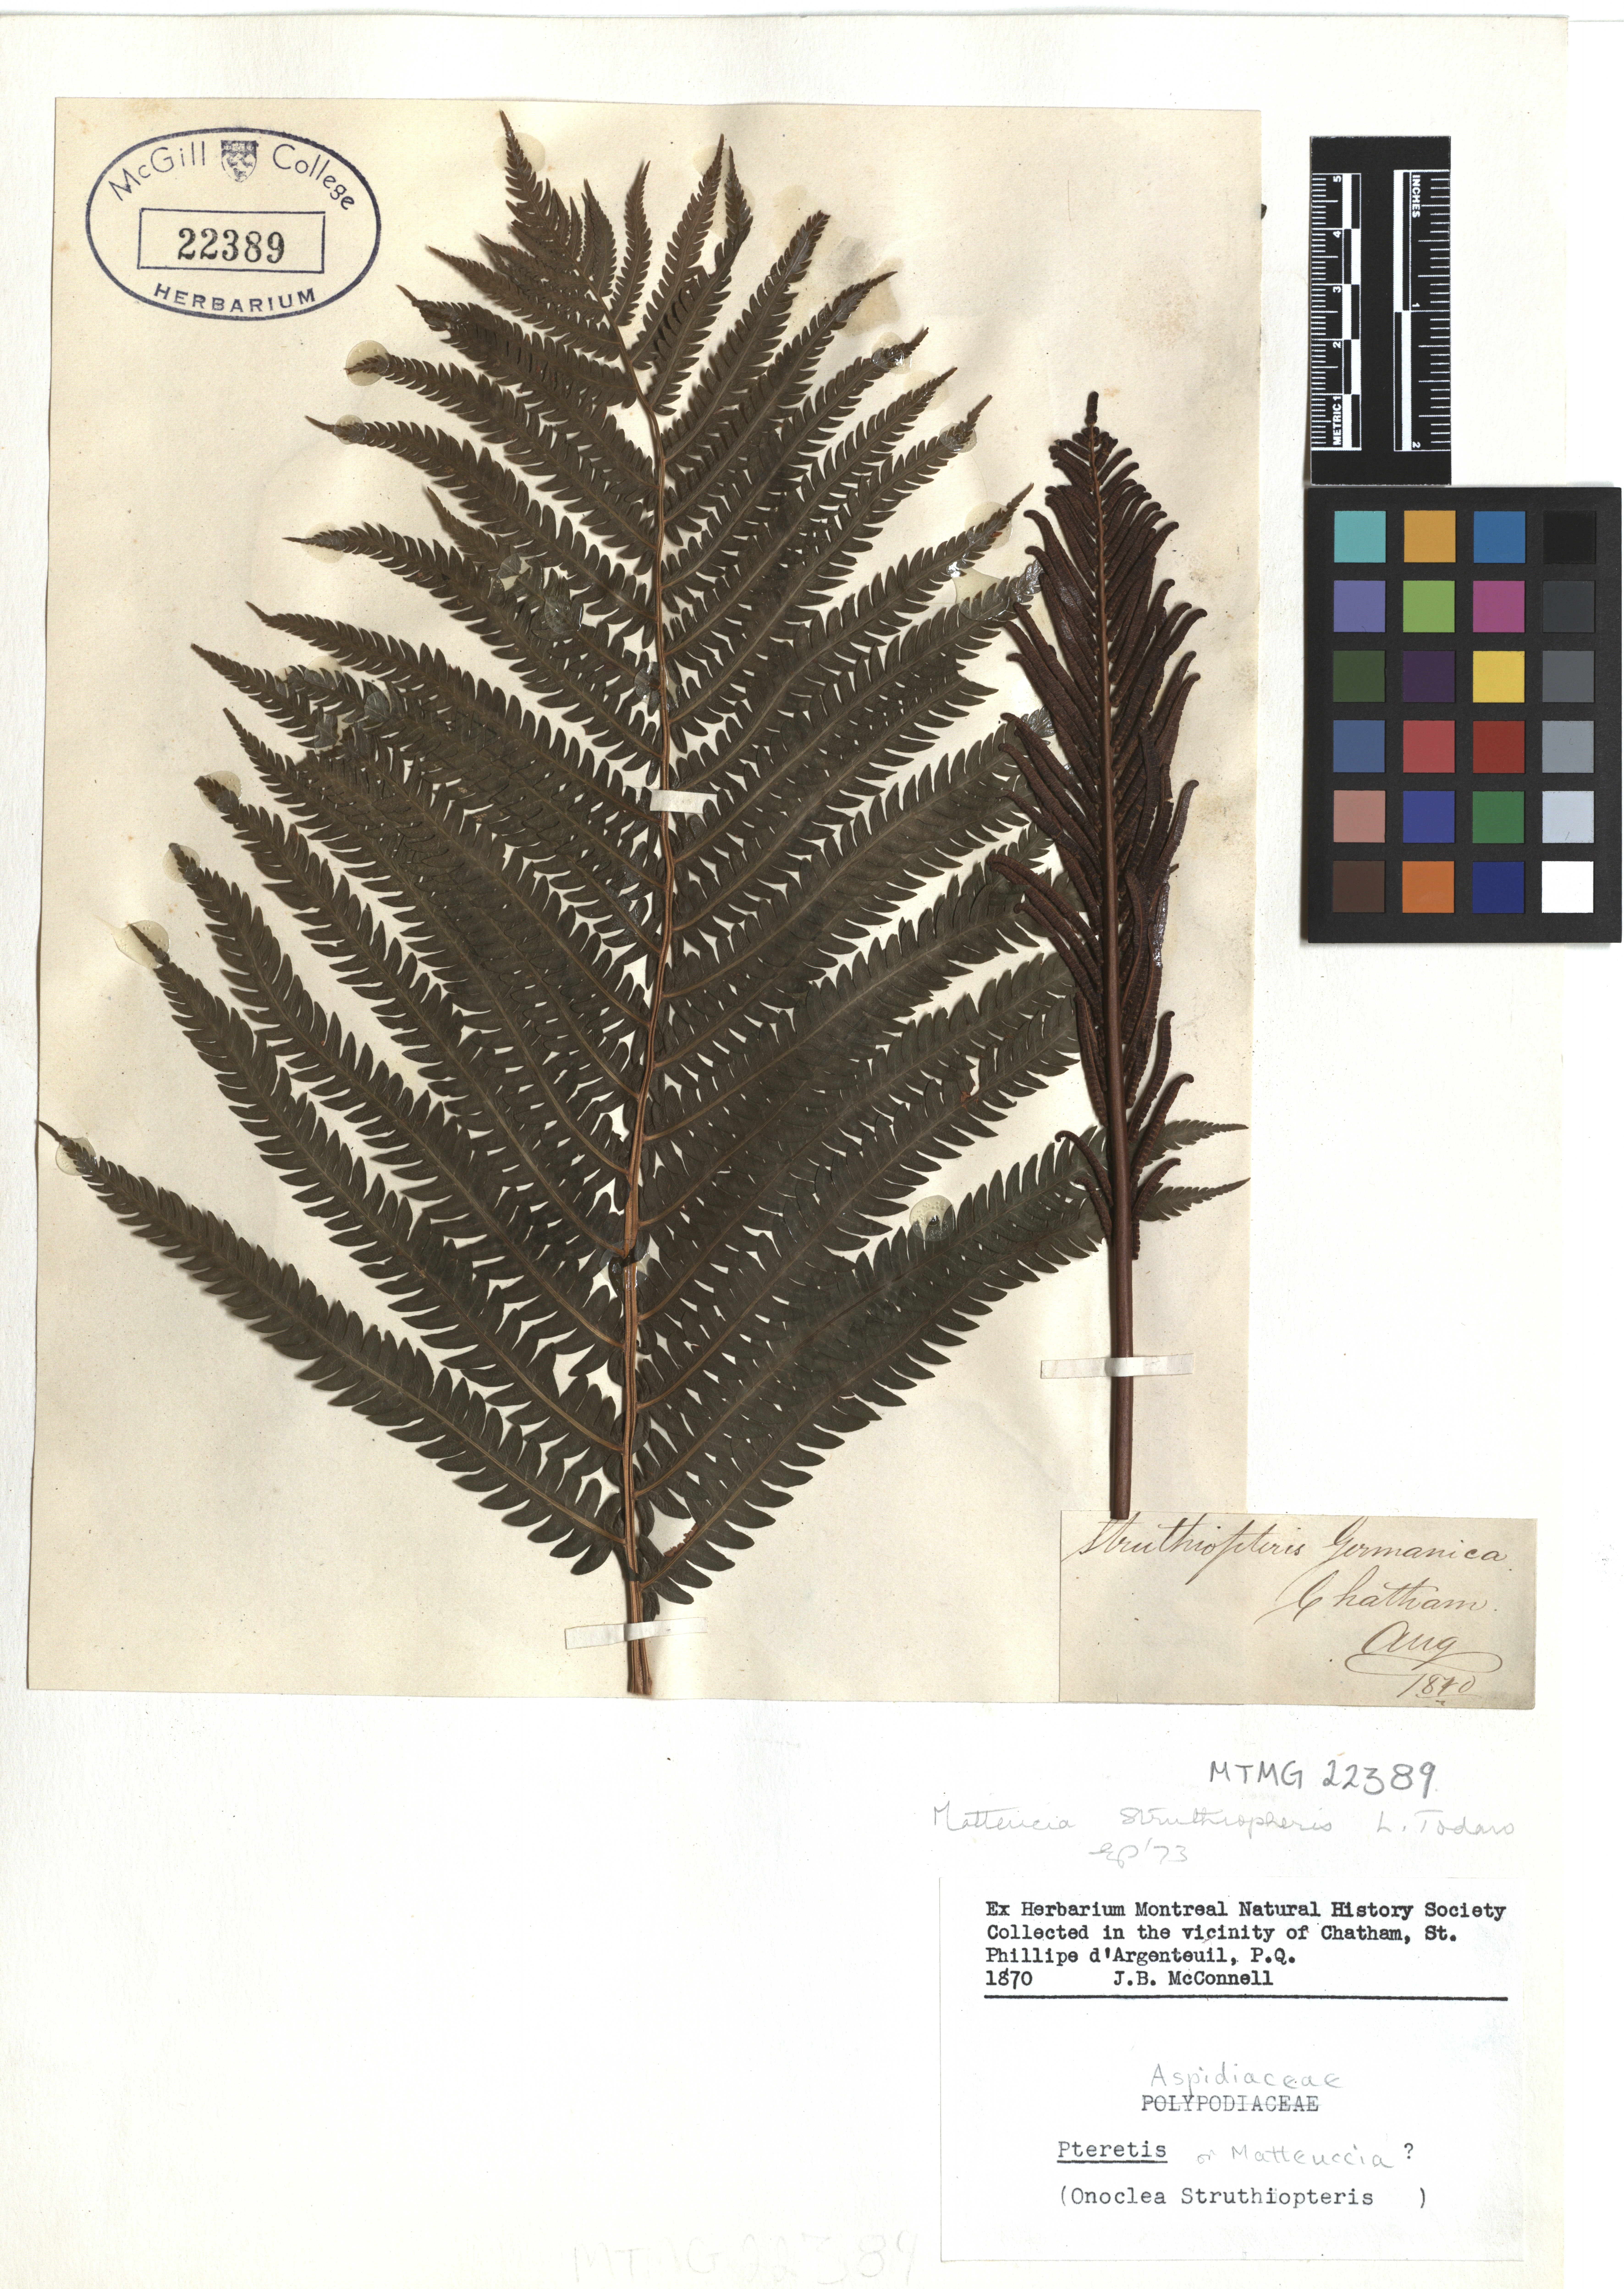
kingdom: Plantae
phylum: Tracheophyta
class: Polypodiopsida
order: Polypodiales
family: Onocleaceae
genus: Matteuccia
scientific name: Matteuccia struthiopteris
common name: Ostrich fern
